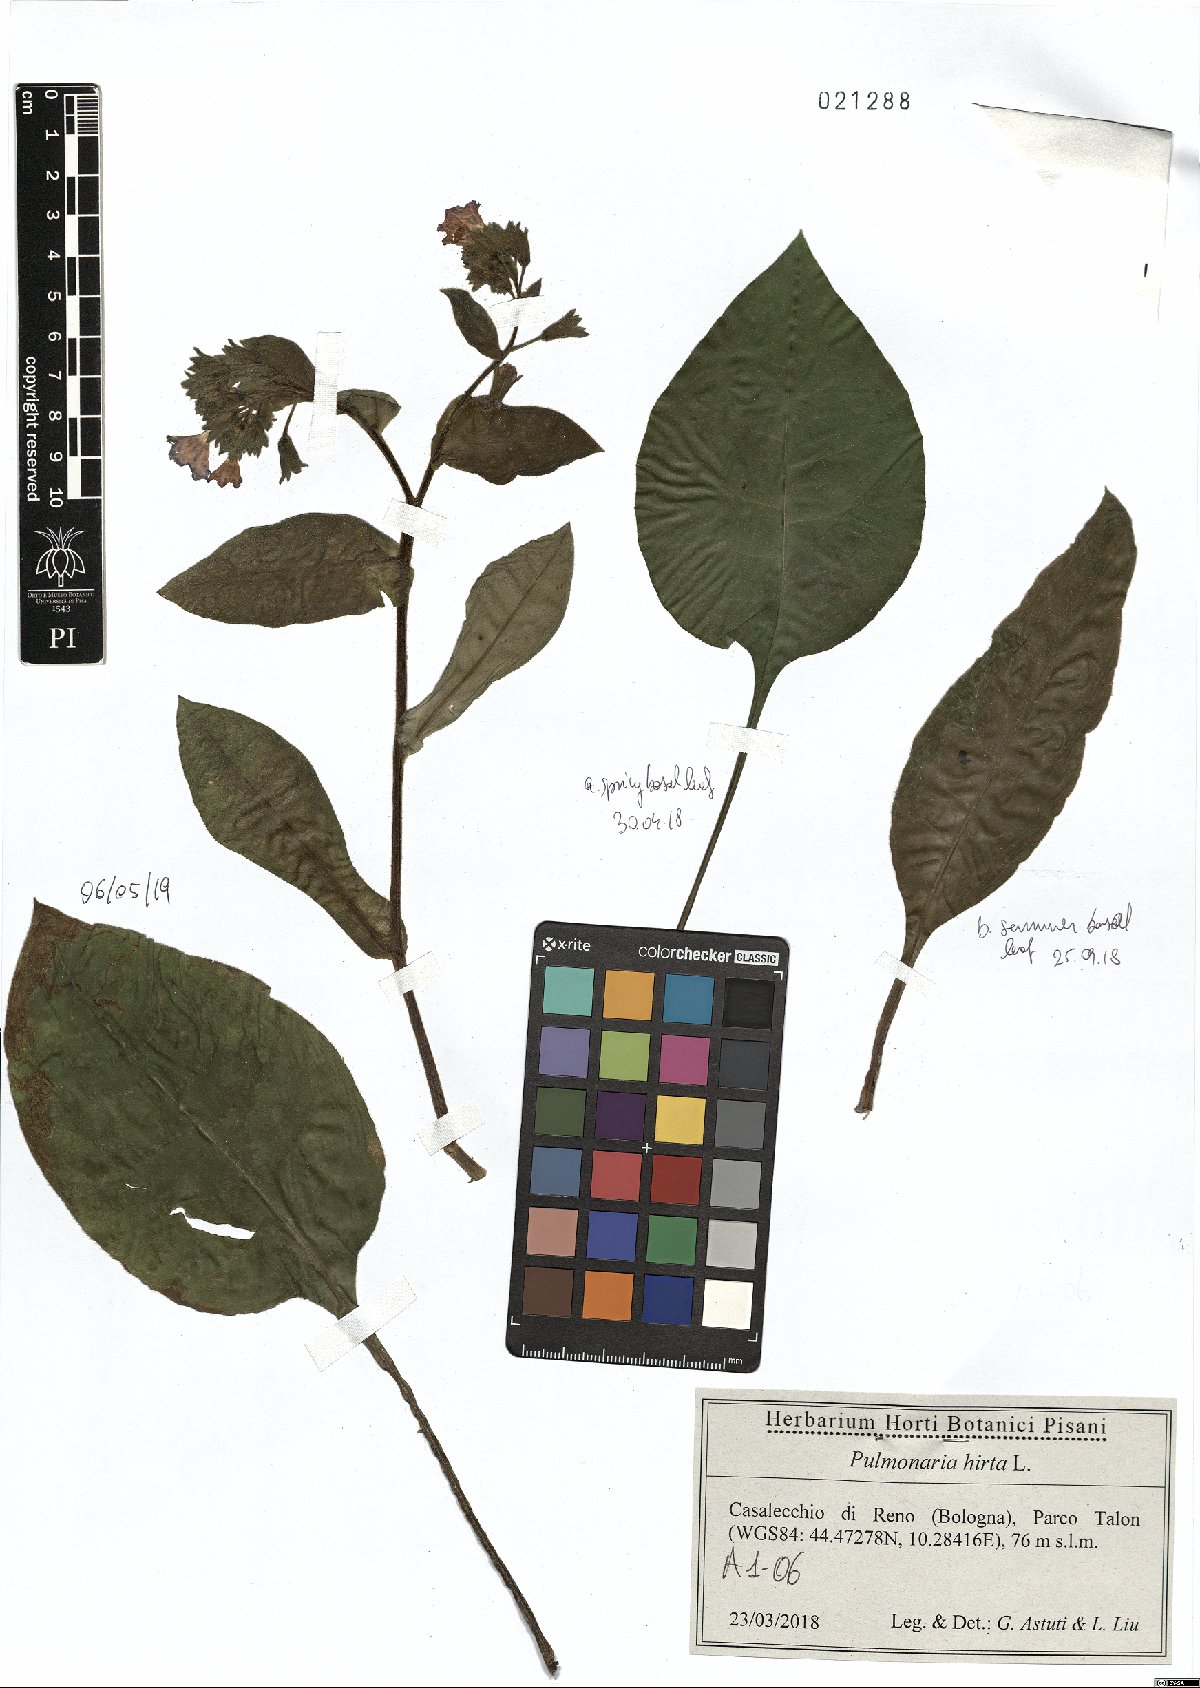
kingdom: Plantae
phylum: Tracheophyta
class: Magnoliopsida
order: Boraginales
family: Boraginaceae
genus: Pulmonaria
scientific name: Pulmonaria hirta
